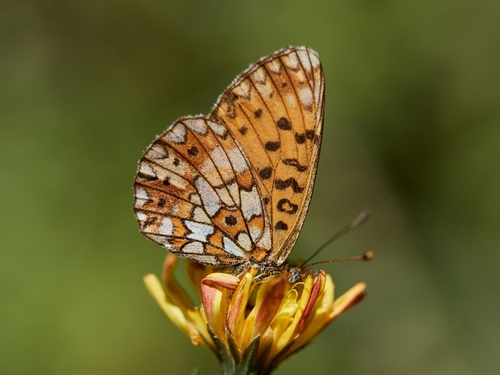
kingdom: Animalia
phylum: Arthropoda
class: Insecta
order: Lepidoptera
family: Nymphalidae
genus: Boloria
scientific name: Boloria selene
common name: Small pearl-bordered fritillary
